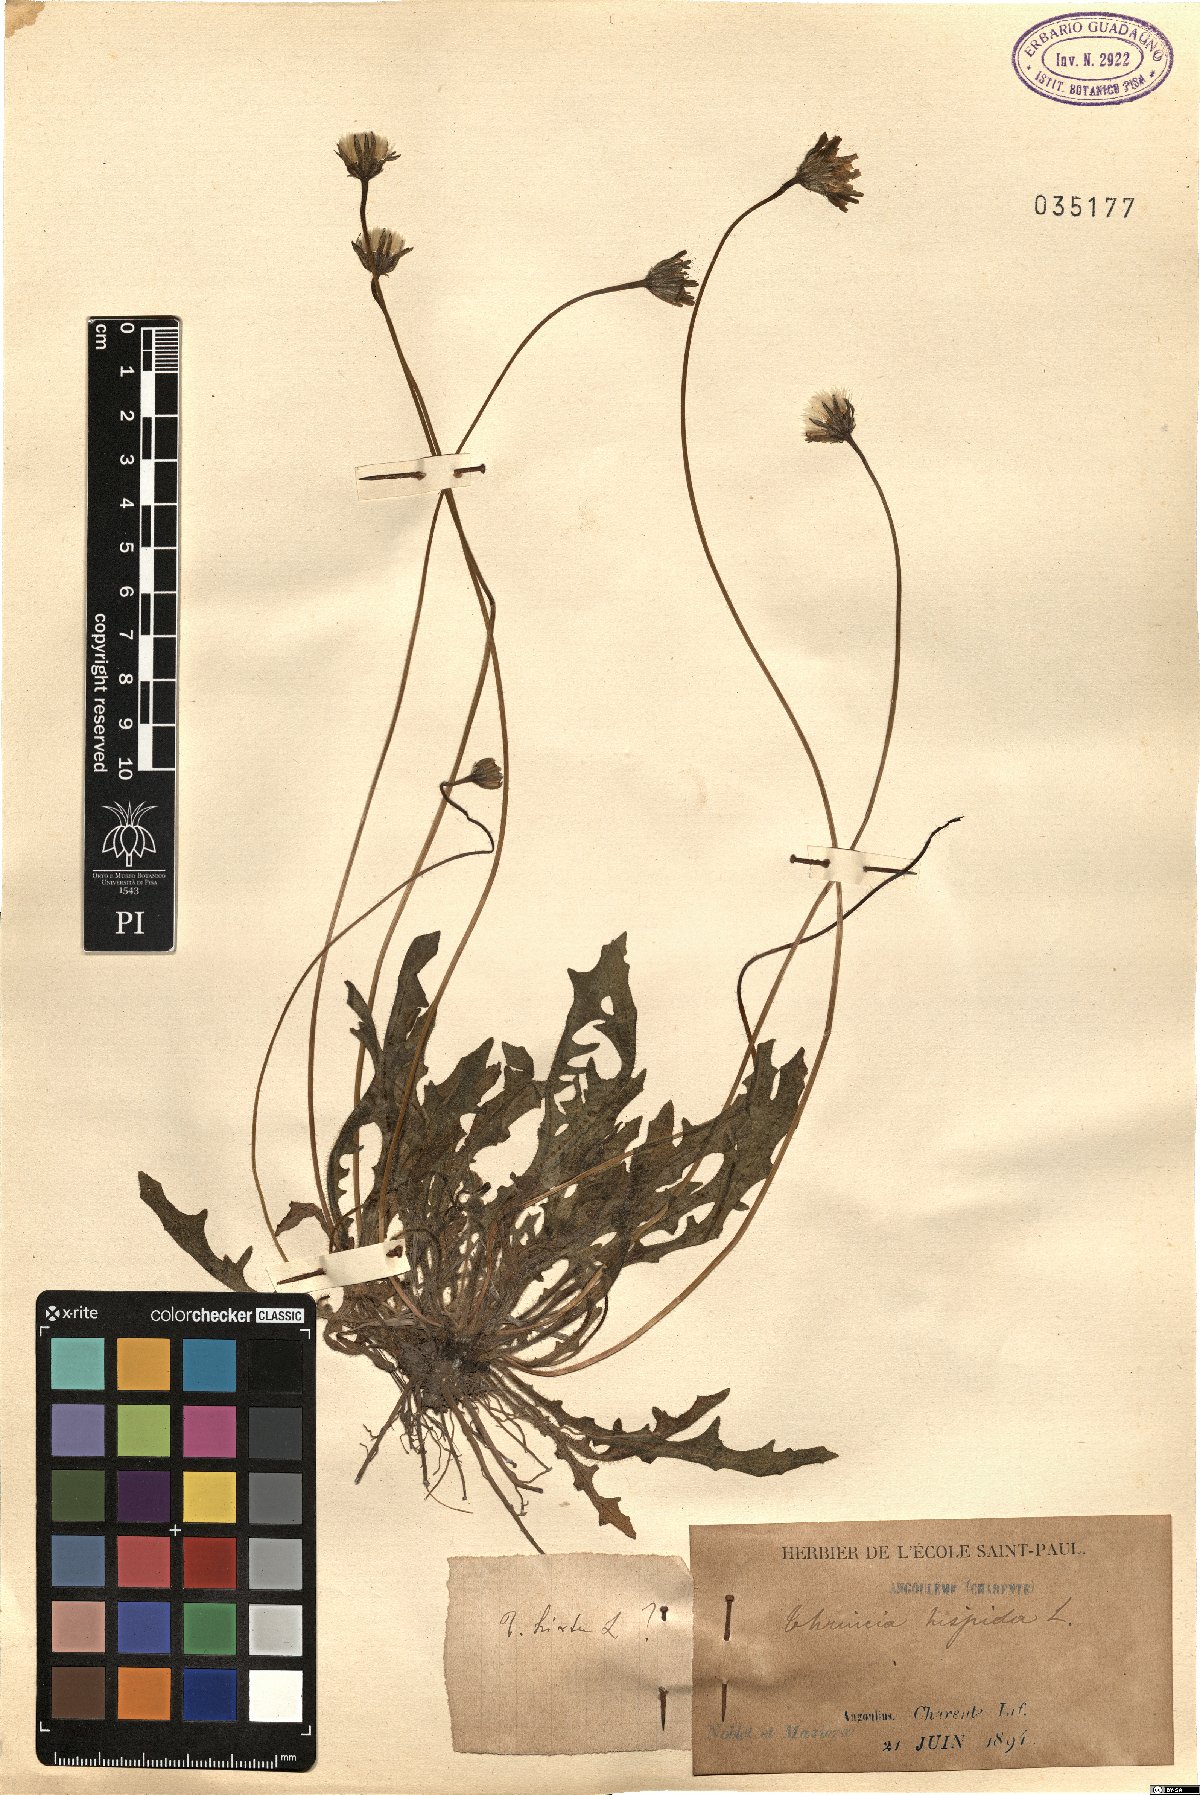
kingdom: Plantae
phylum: Tracheophyta
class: Magnoliopsida
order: Asterales
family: Asteraceae
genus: Thrincia
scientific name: Thrincia hispida
